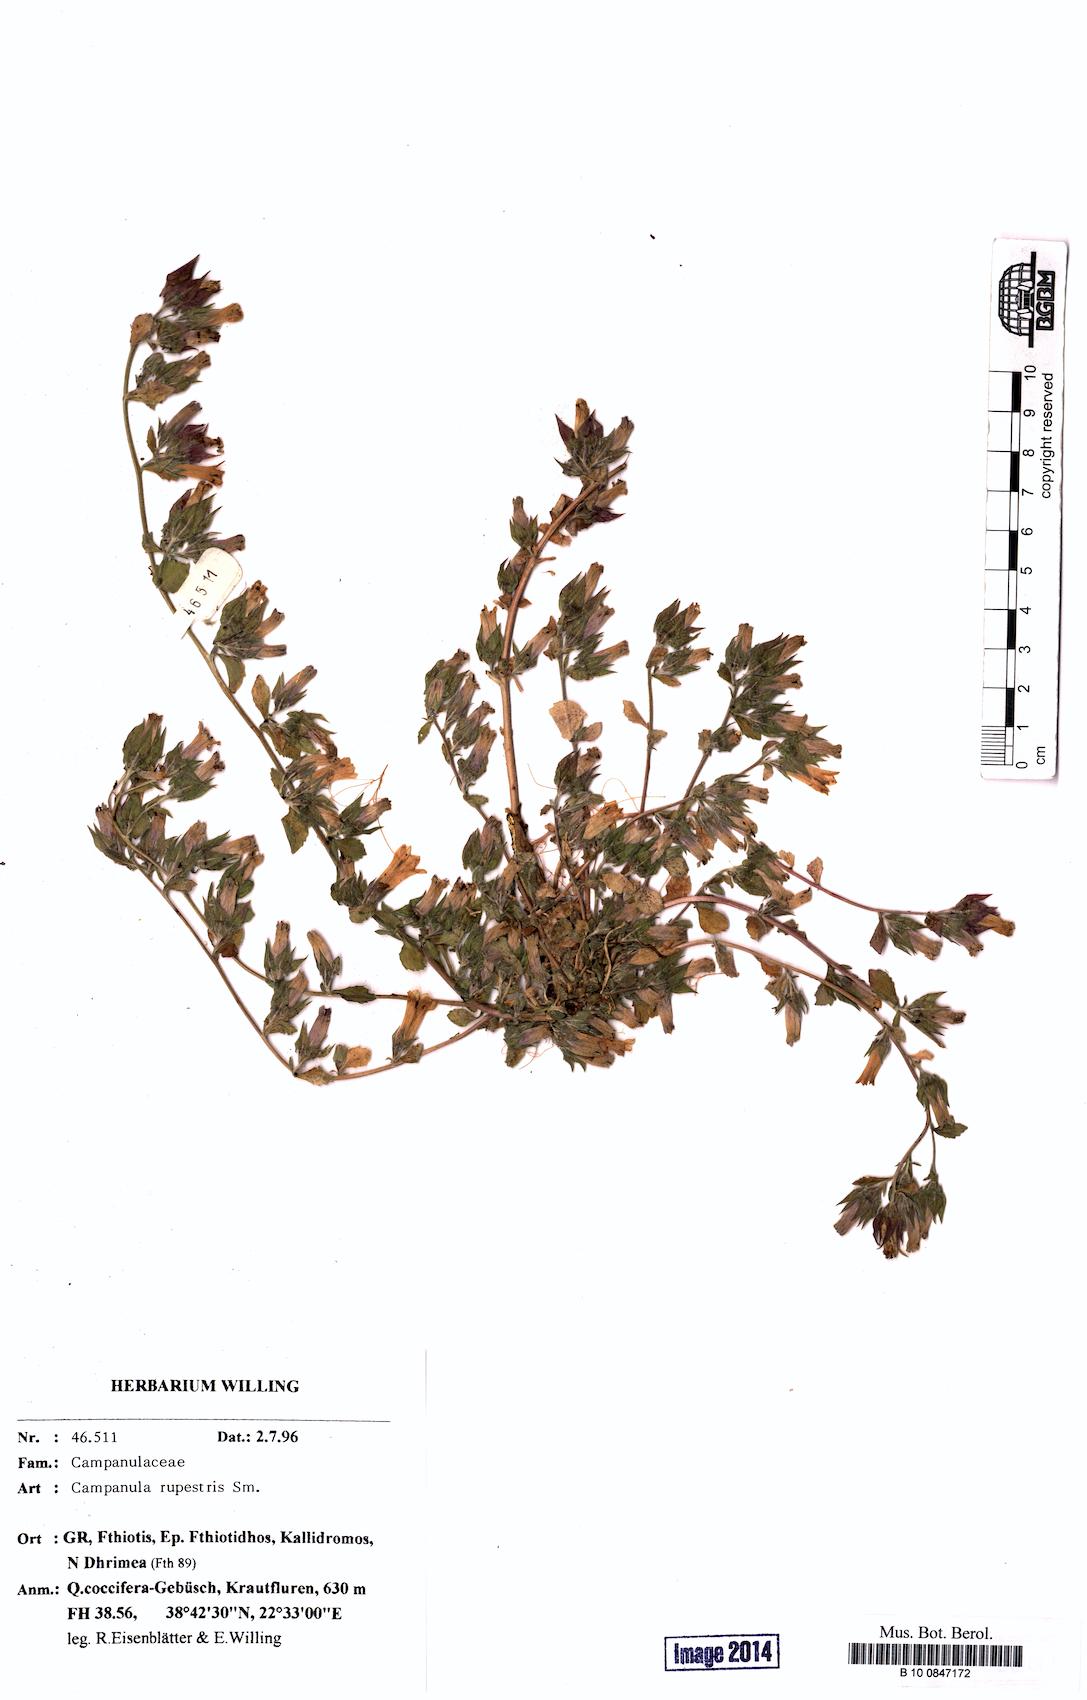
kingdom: Plantae
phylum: Tracheophyta
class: Magnoliopsida
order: Asterales
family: Campanulaceae
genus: Campanula
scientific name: Campanula rupestris
